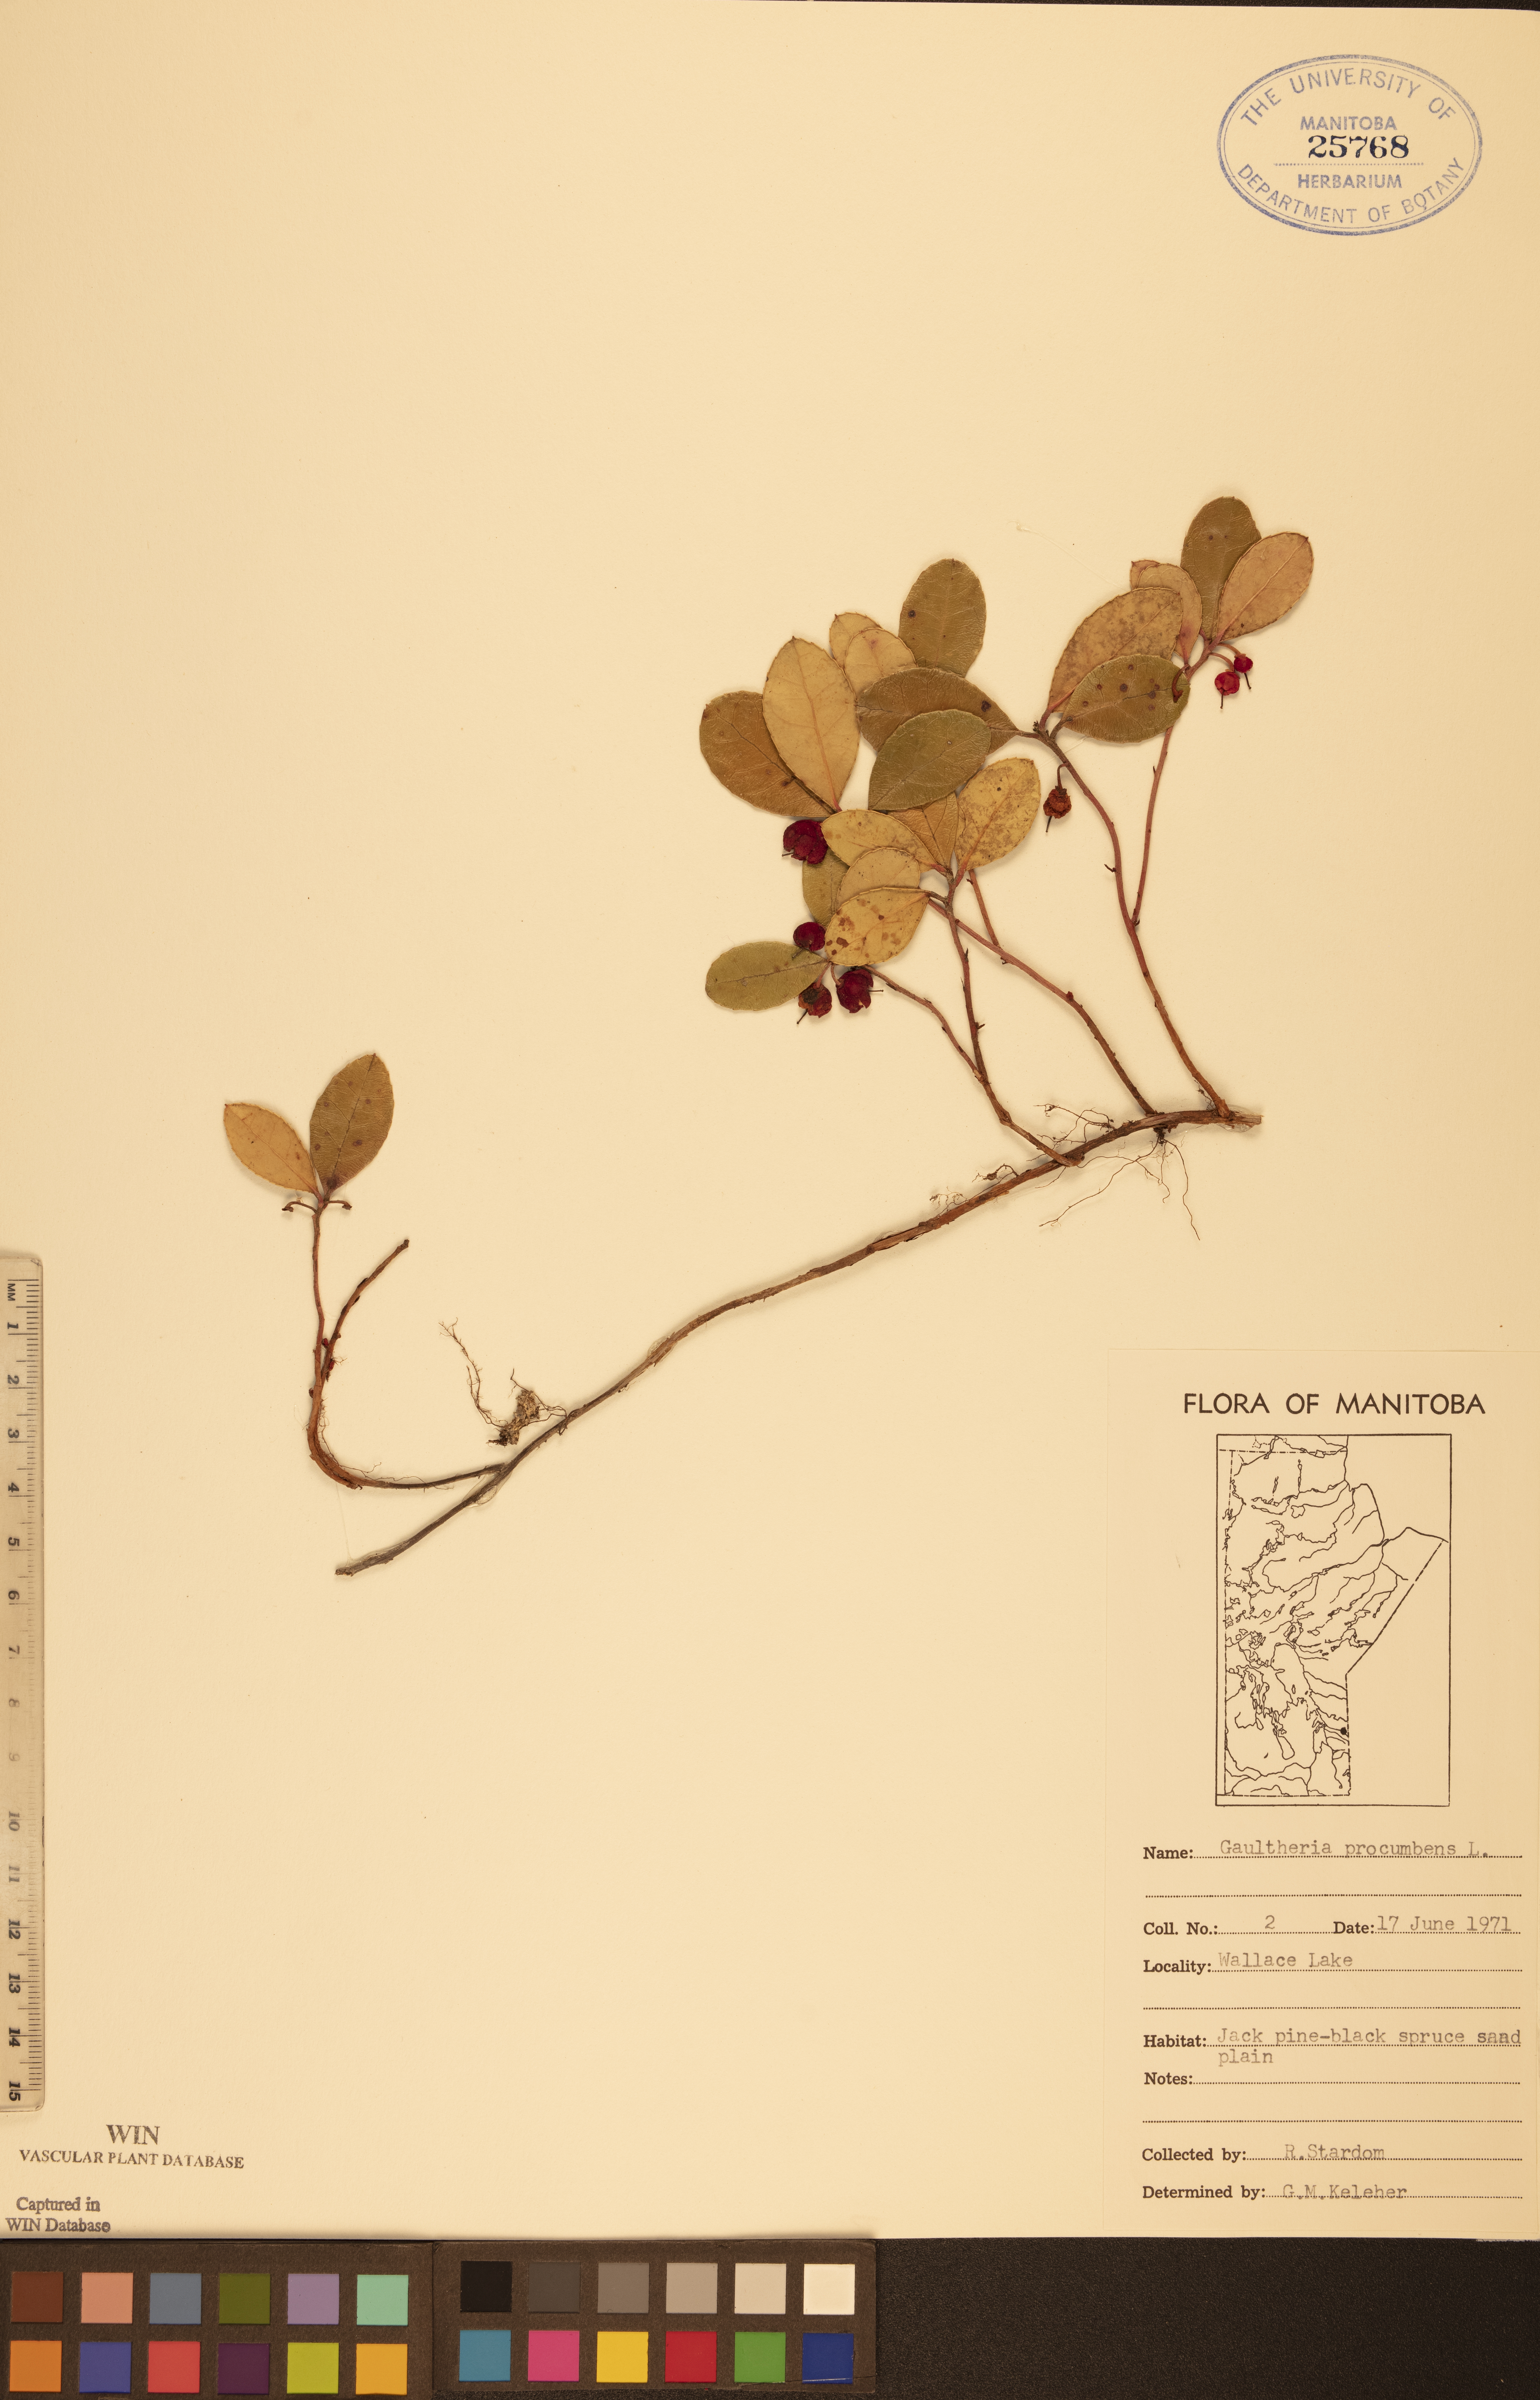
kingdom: Plantae
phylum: Tracheophyta
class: Magnoliopsida
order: Ericales
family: Ericaceae
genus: Gaultheria
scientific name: Gaultheria procumbens
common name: Checkerberry
